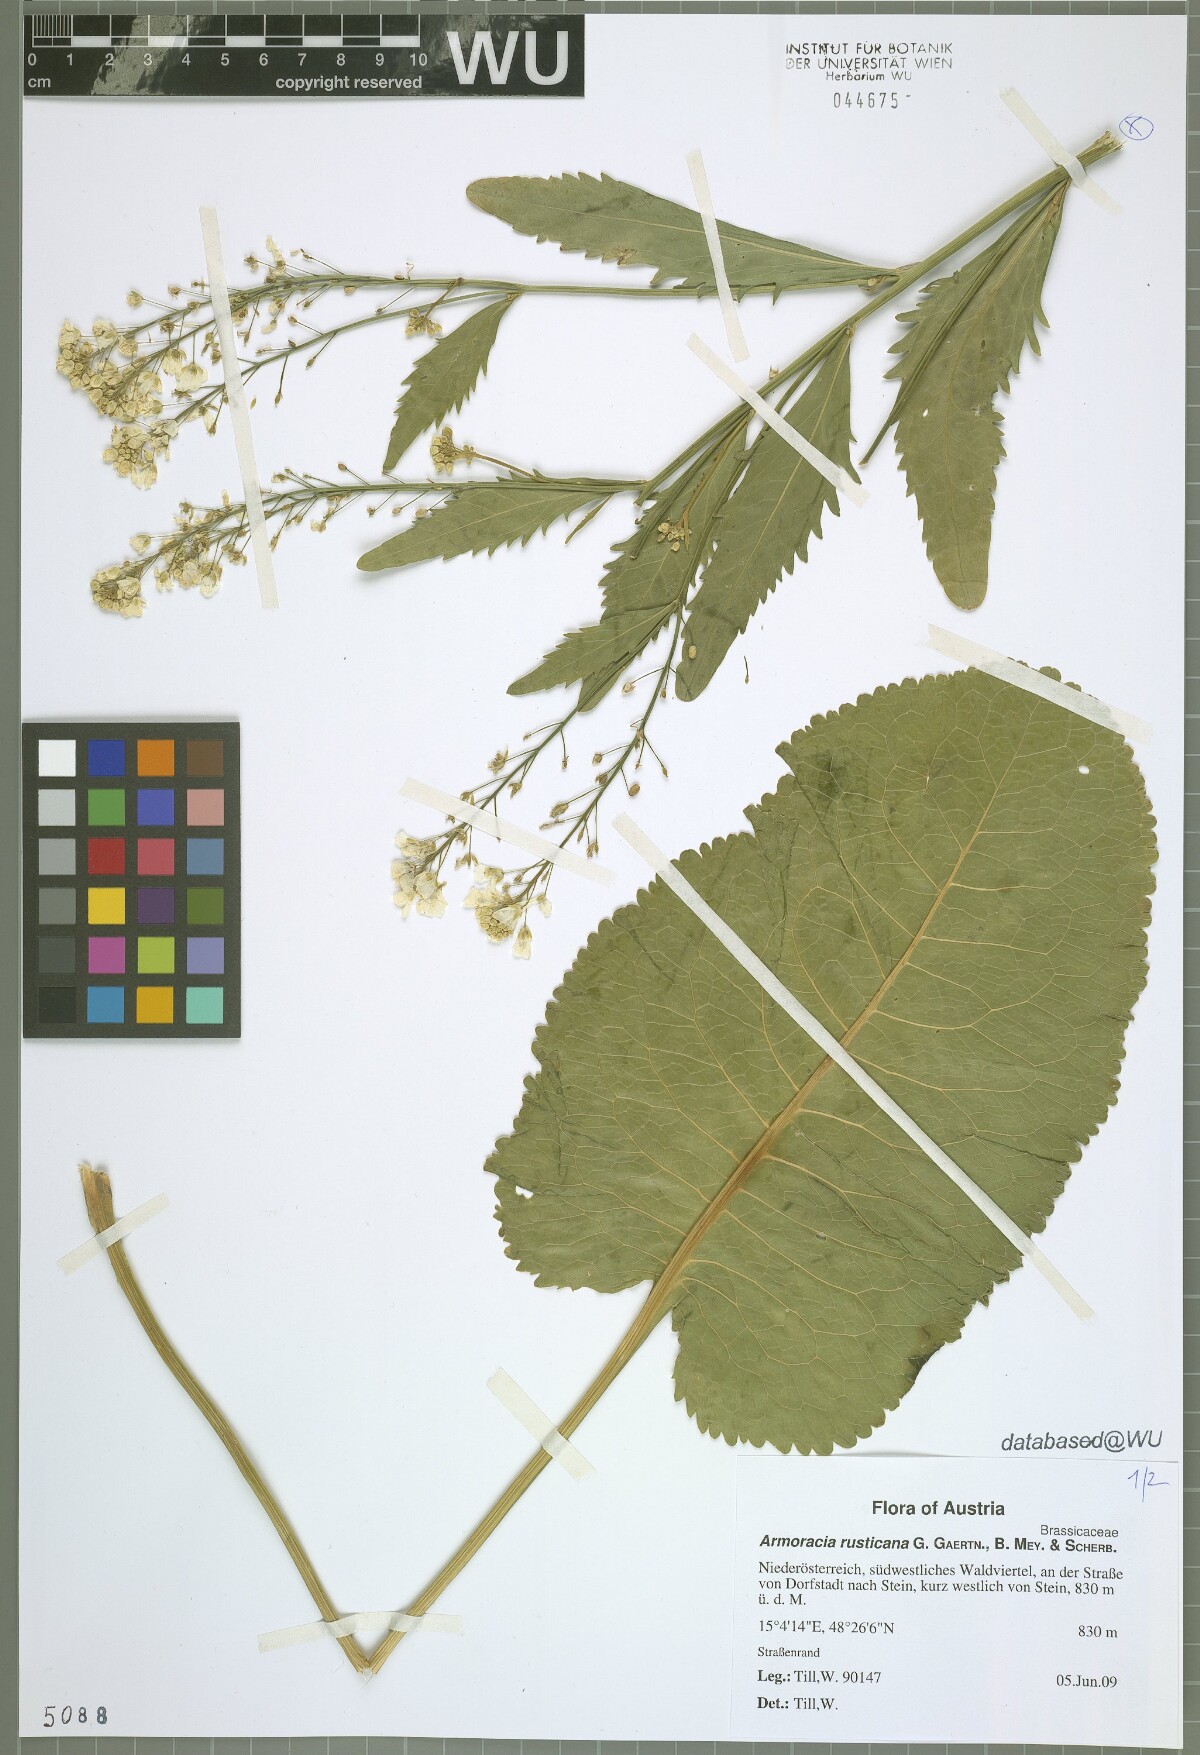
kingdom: Plantae
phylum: Tracheophyta
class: Magnoliopsida
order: Brassicales
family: Brassicaceae
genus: Armoracia
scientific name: Armoracia rusticana
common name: Horseradish
